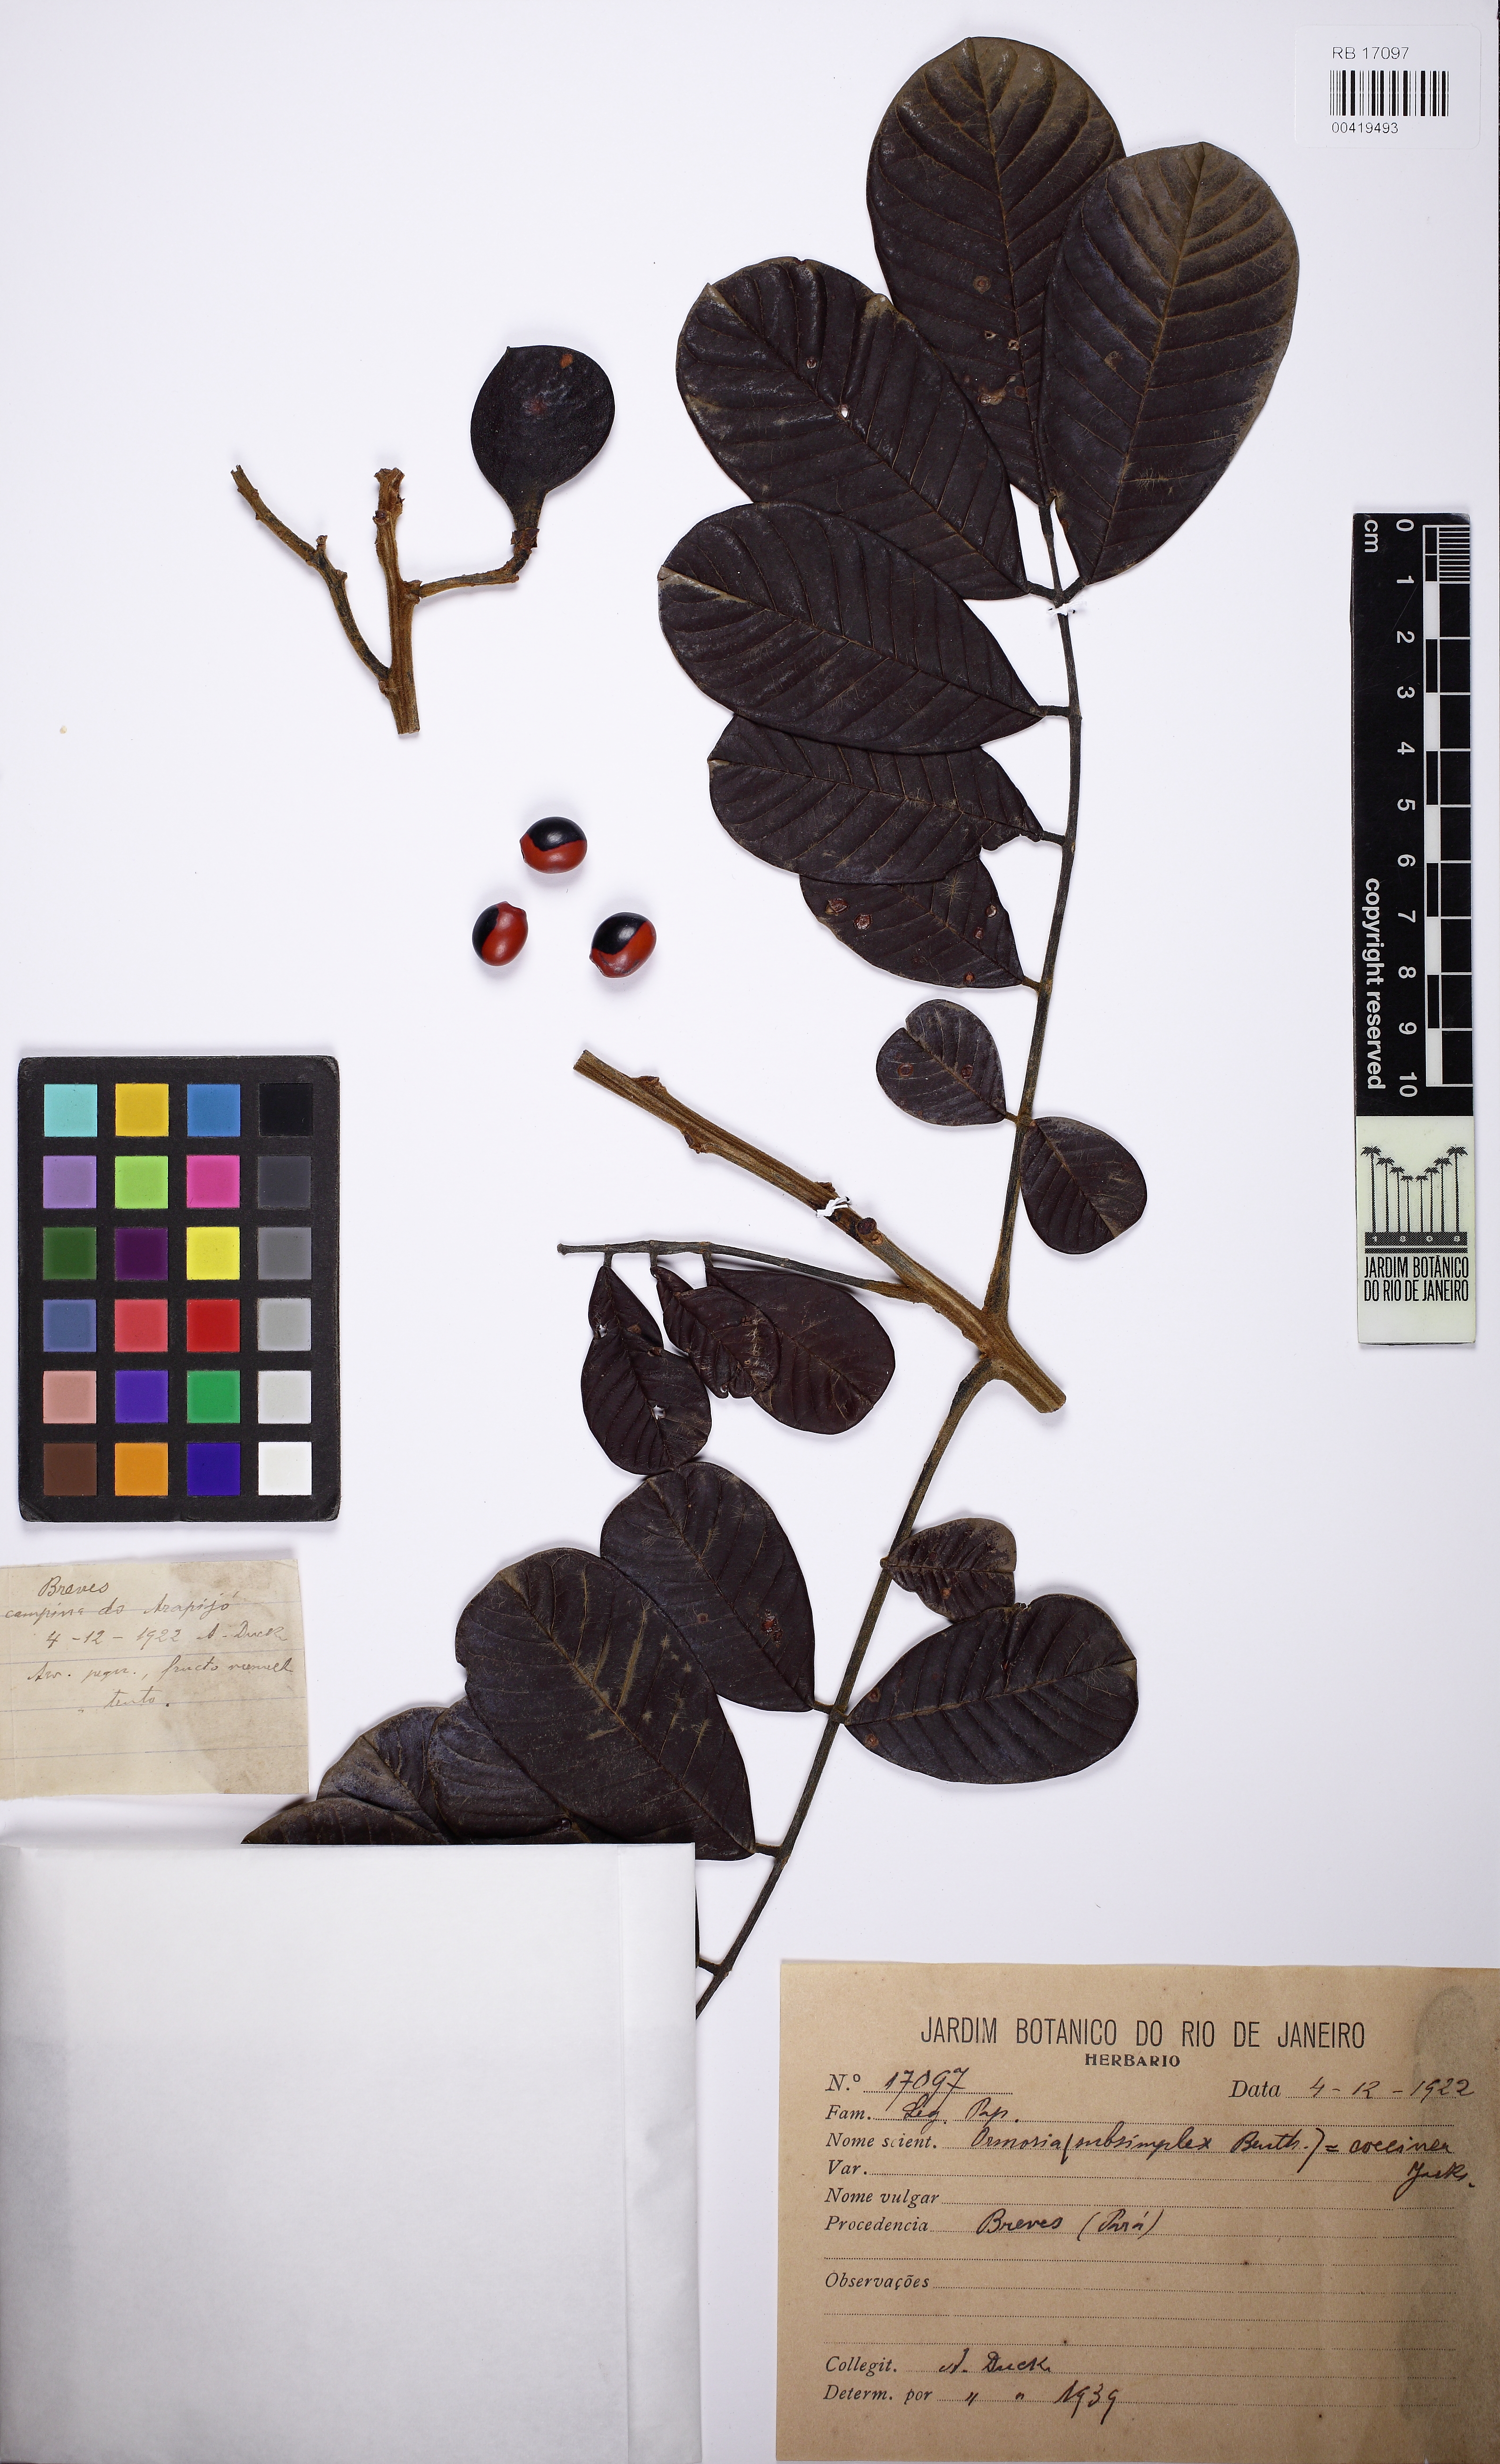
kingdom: Plantae
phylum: Tracheophyta
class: Magnoliopsida
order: Fabales
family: Fabaceae
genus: Ormosia
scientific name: Ormosia subsimplex
